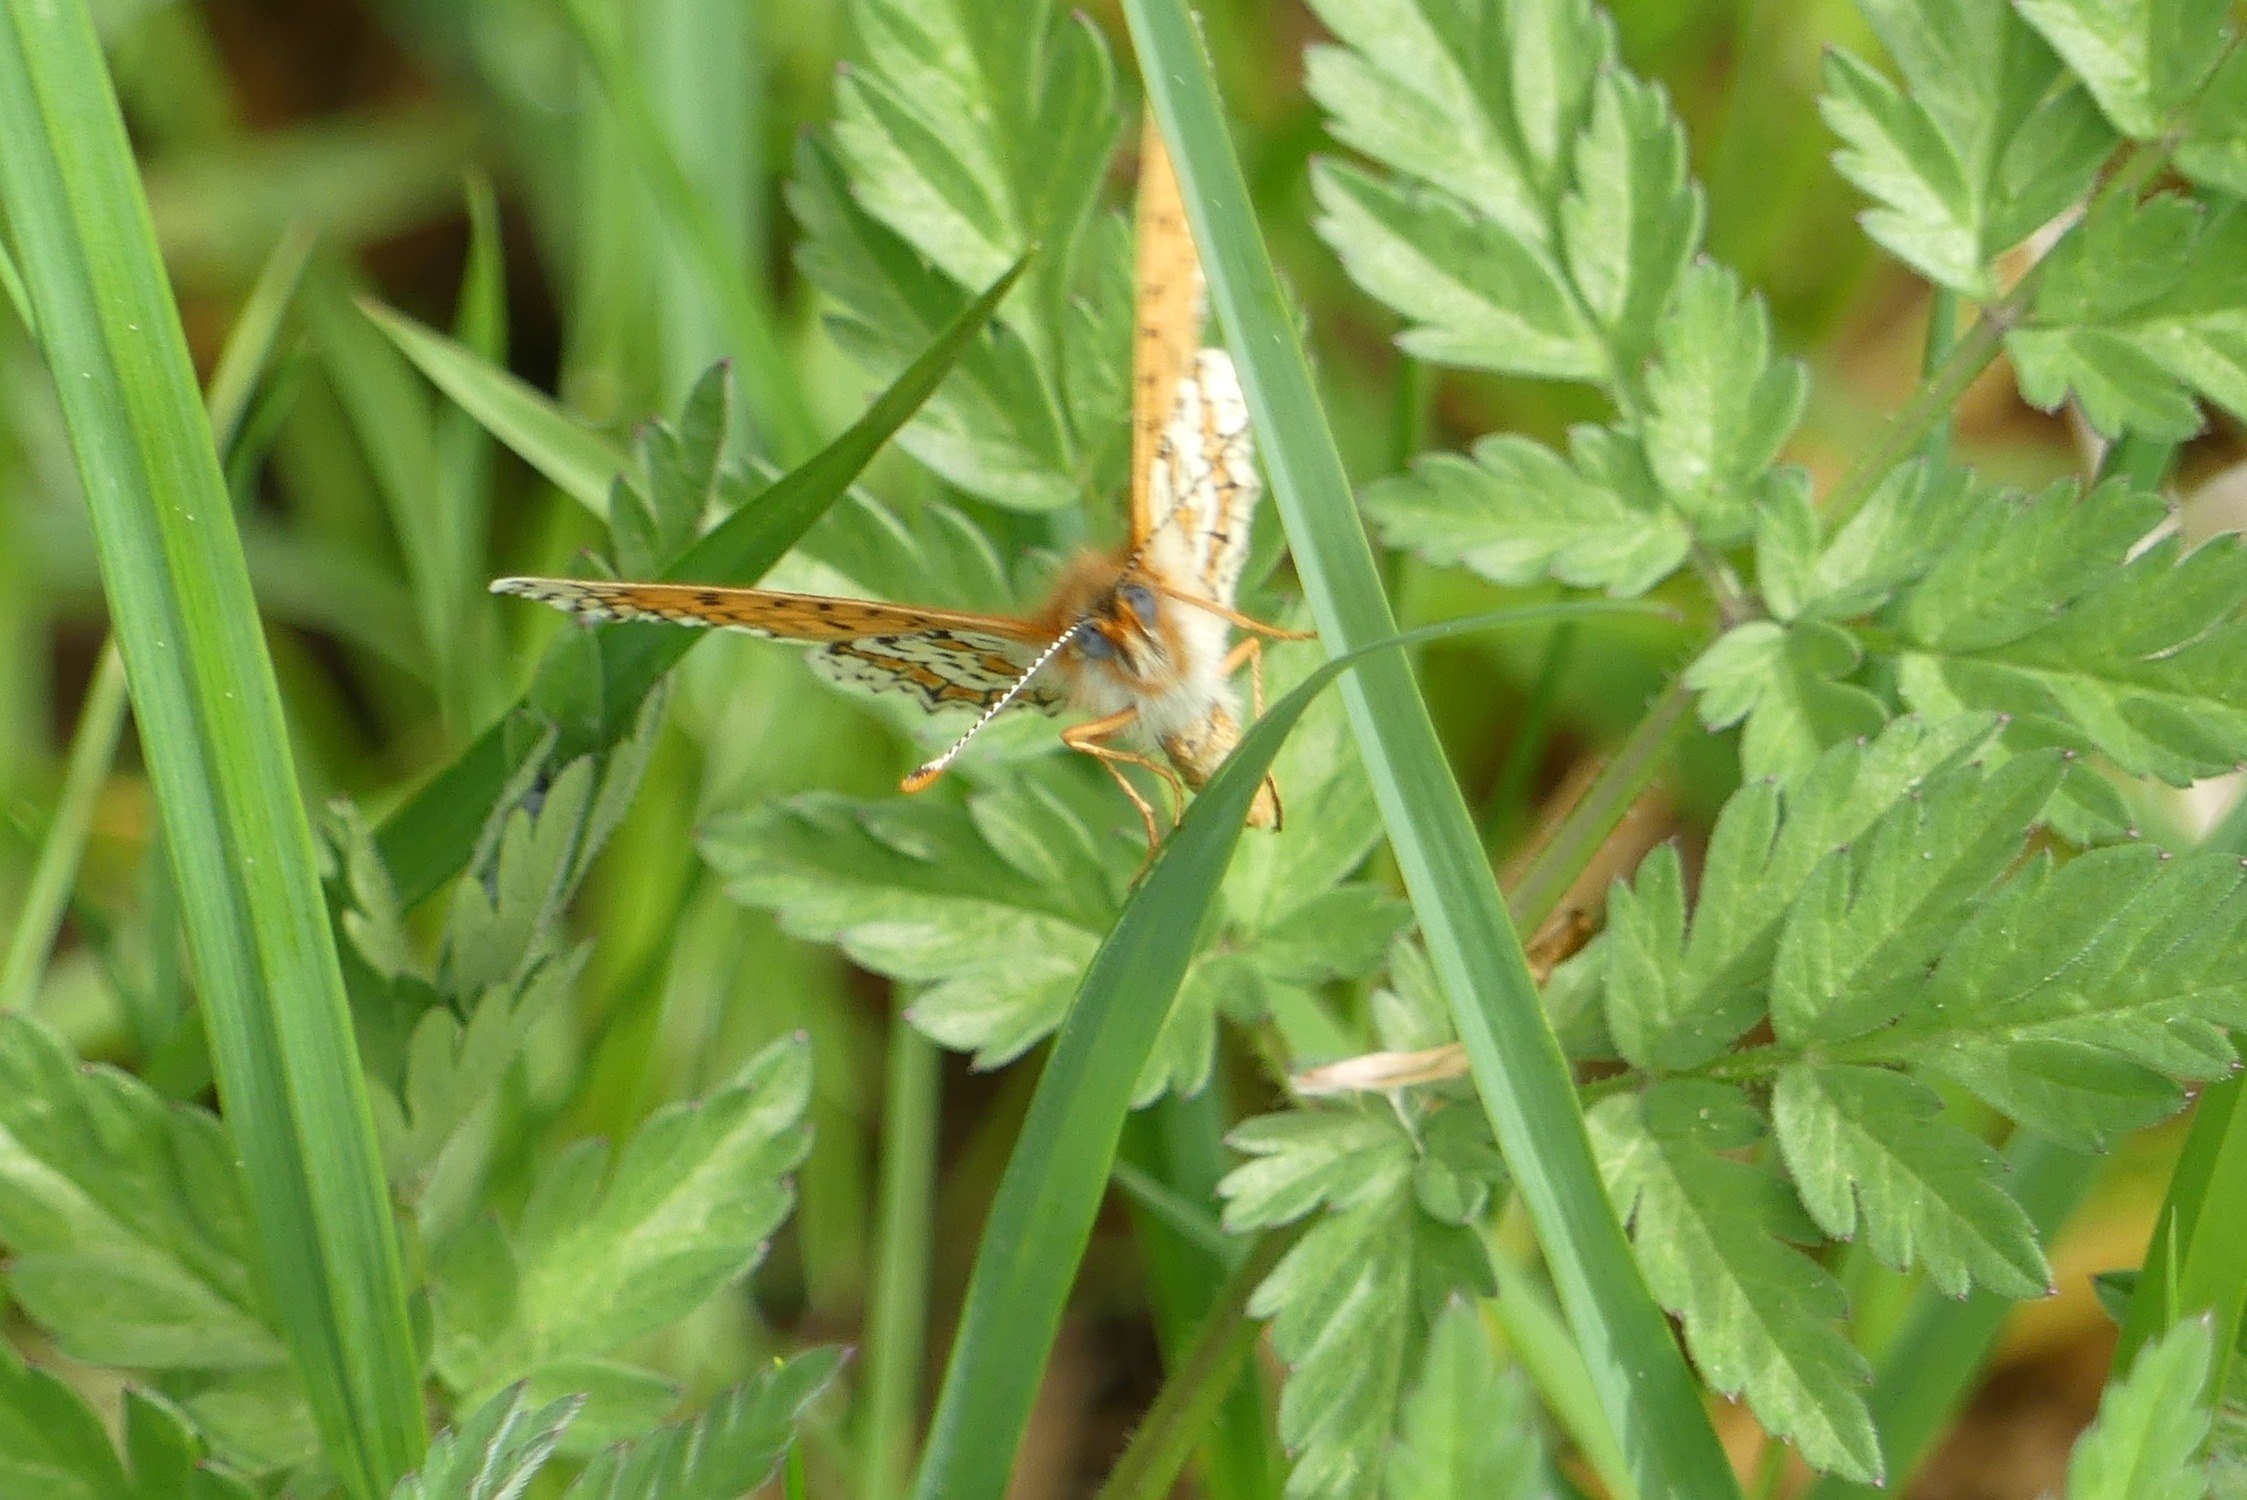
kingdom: Animalia
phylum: Arthropoda
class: Insecta
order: Lepidoptera
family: Nymphalidae
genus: Melitaea
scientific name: Melitaea cinxia
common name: Okkergul pletvinge
